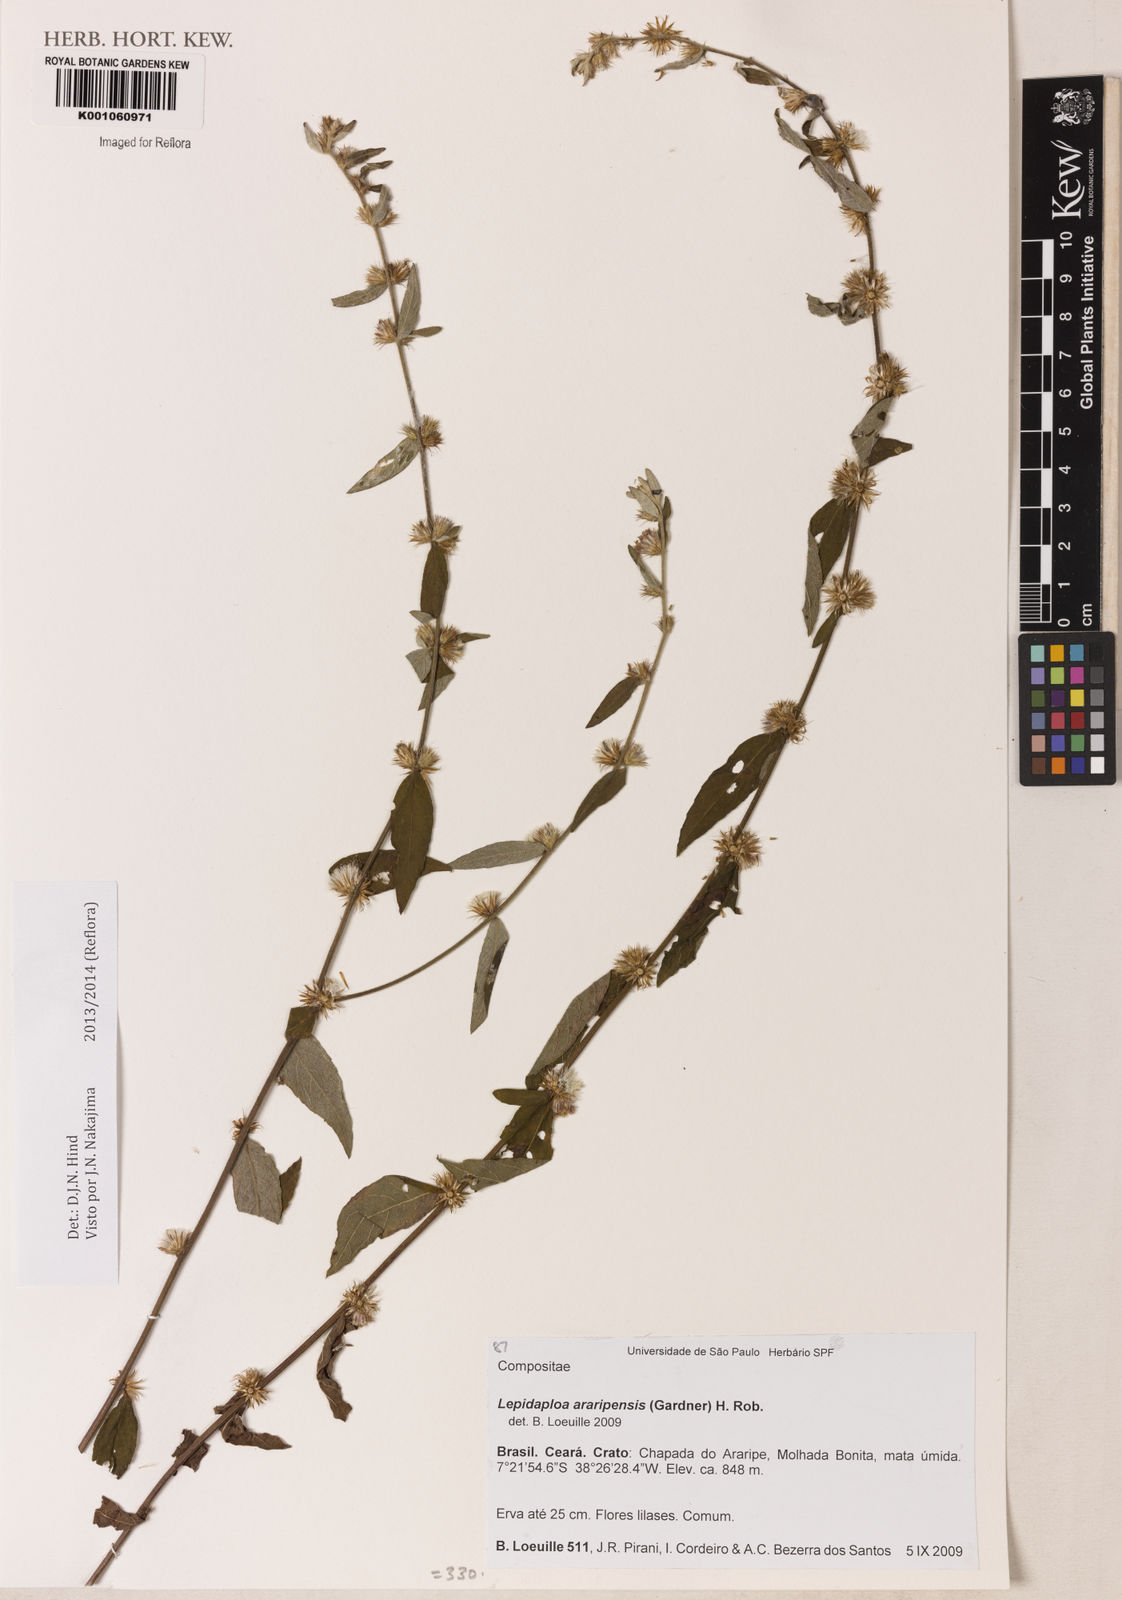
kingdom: Plantae
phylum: Tracheophyta
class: Magnoliopsida
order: Asterales
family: Asteraceae
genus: Lepidaploa
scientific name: Lepidaploa araripensis
